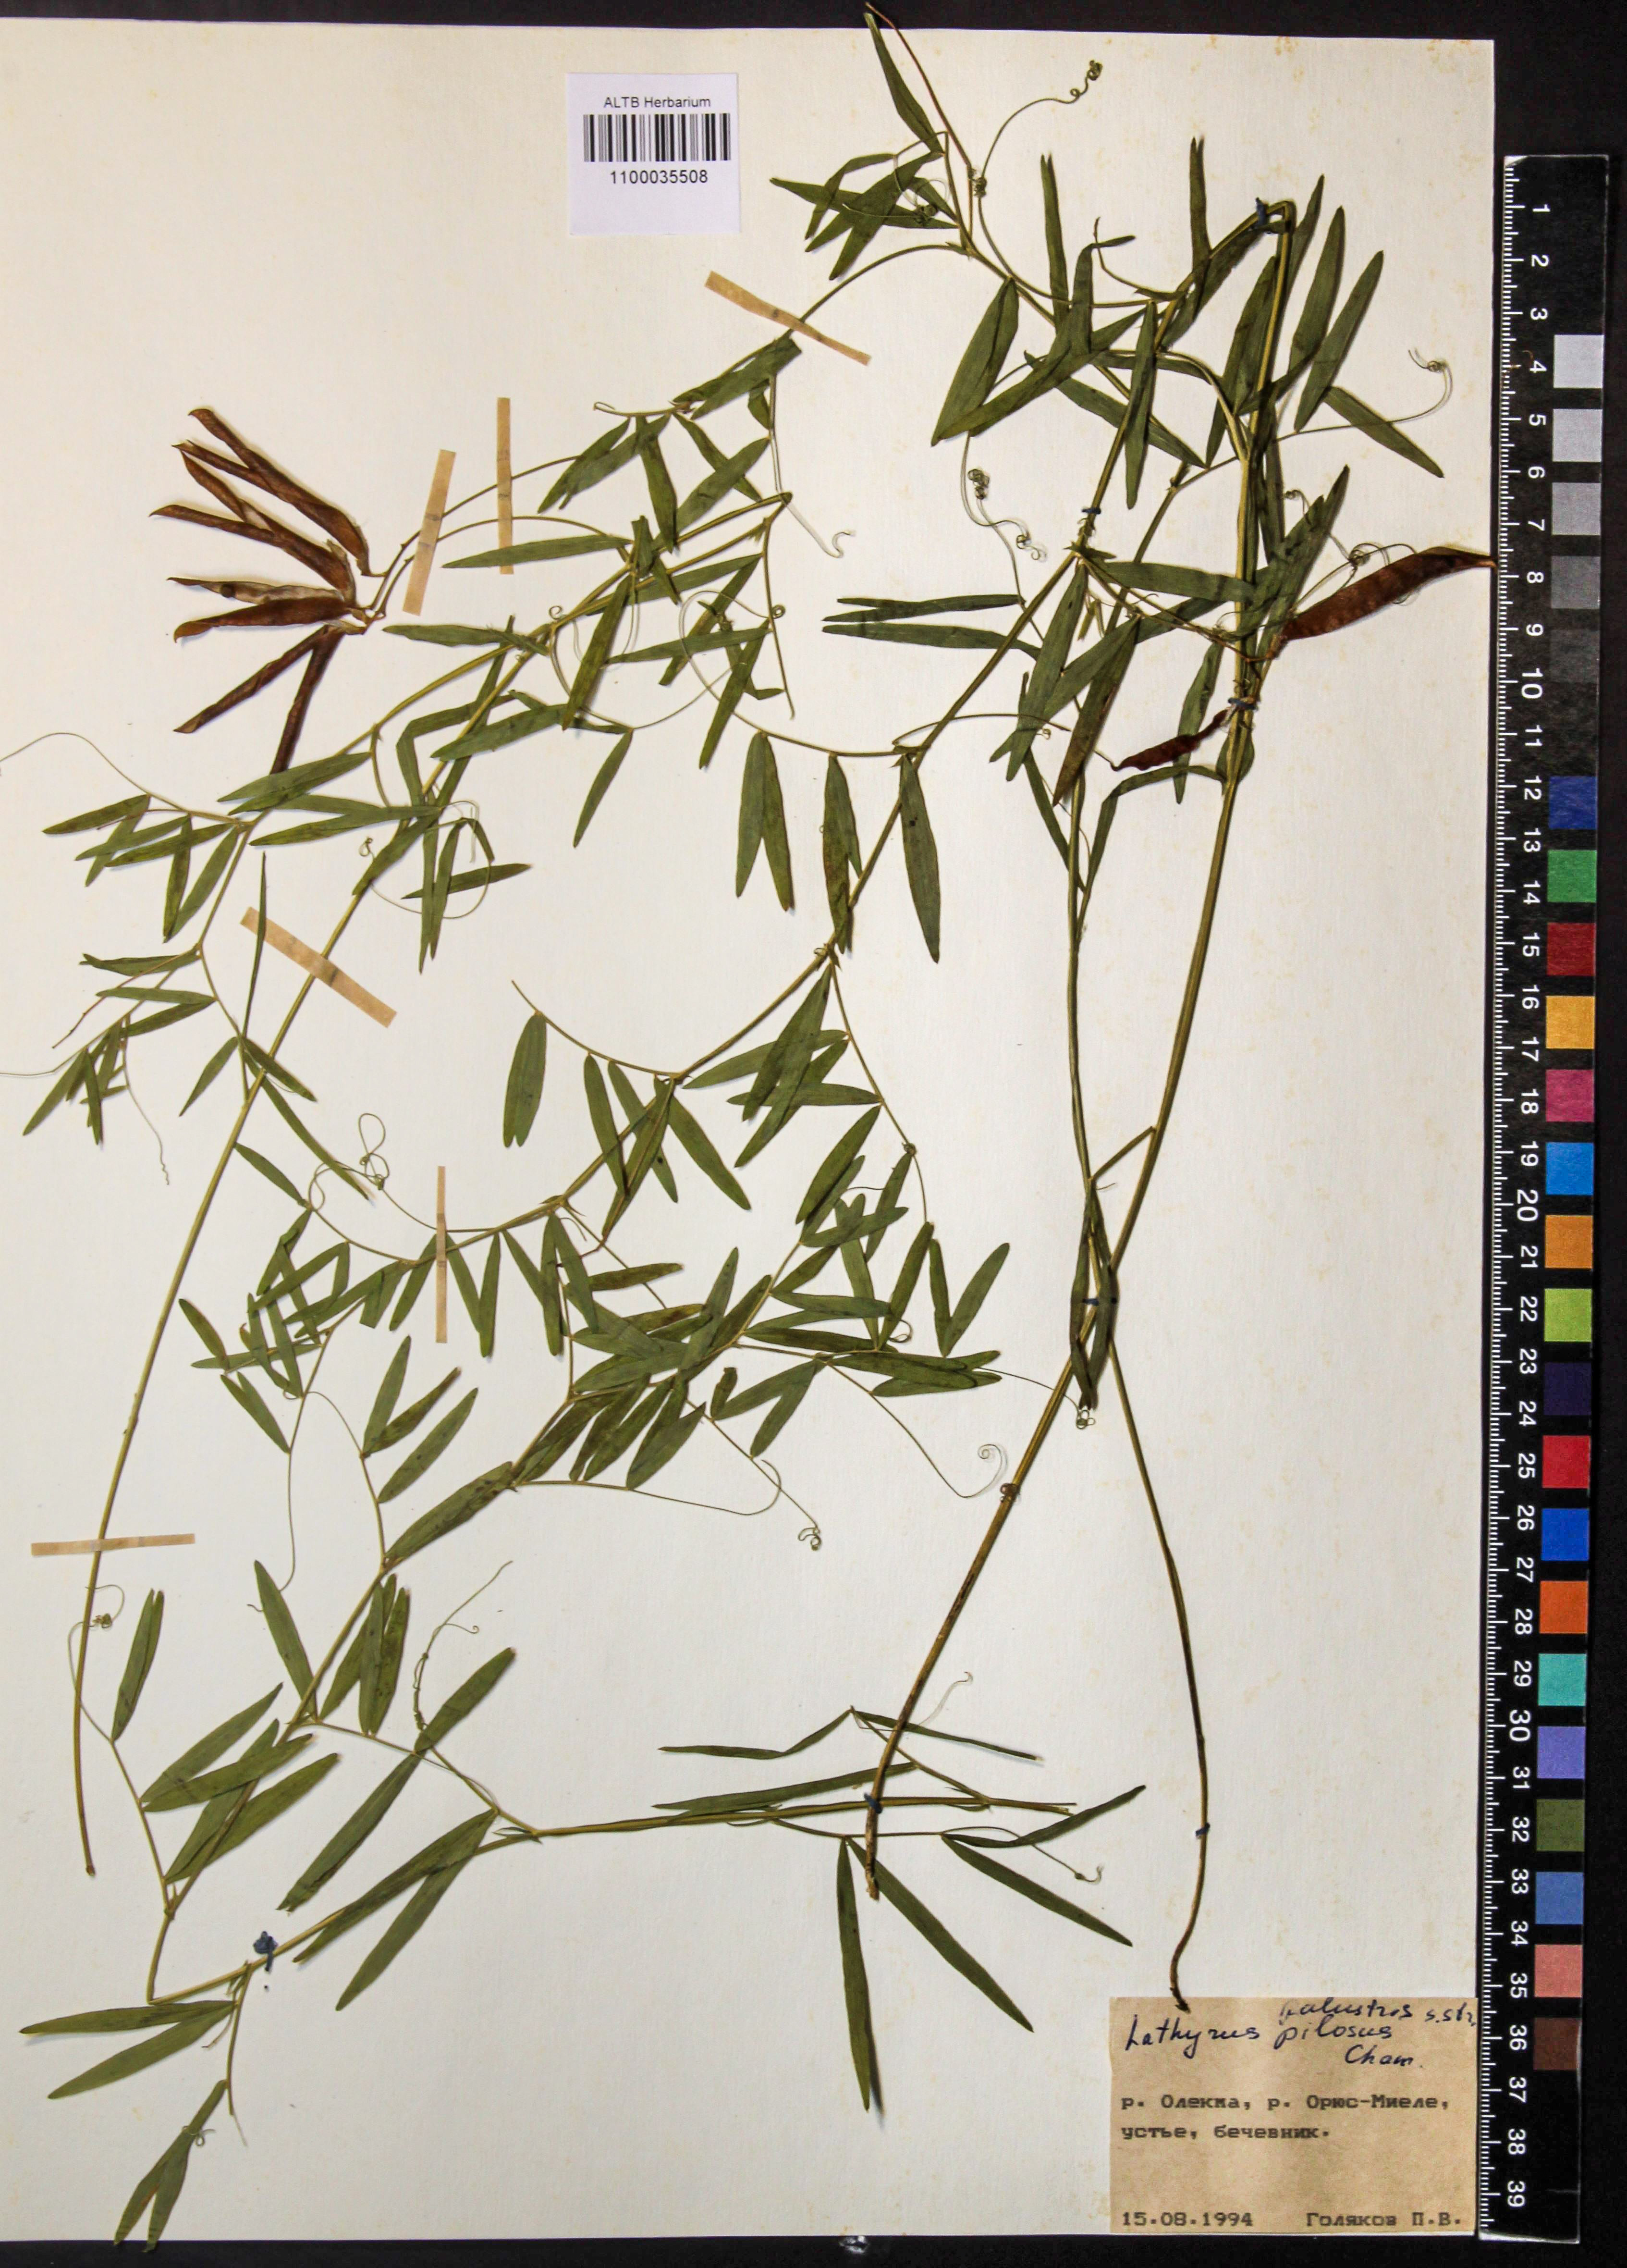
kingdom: Plantae
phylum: Tracheophyta
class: Magnoliopsida
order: Fabales
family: Fabaceae
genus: Lathyrus
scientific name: Lathyrus palustris
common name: Marsh pea
